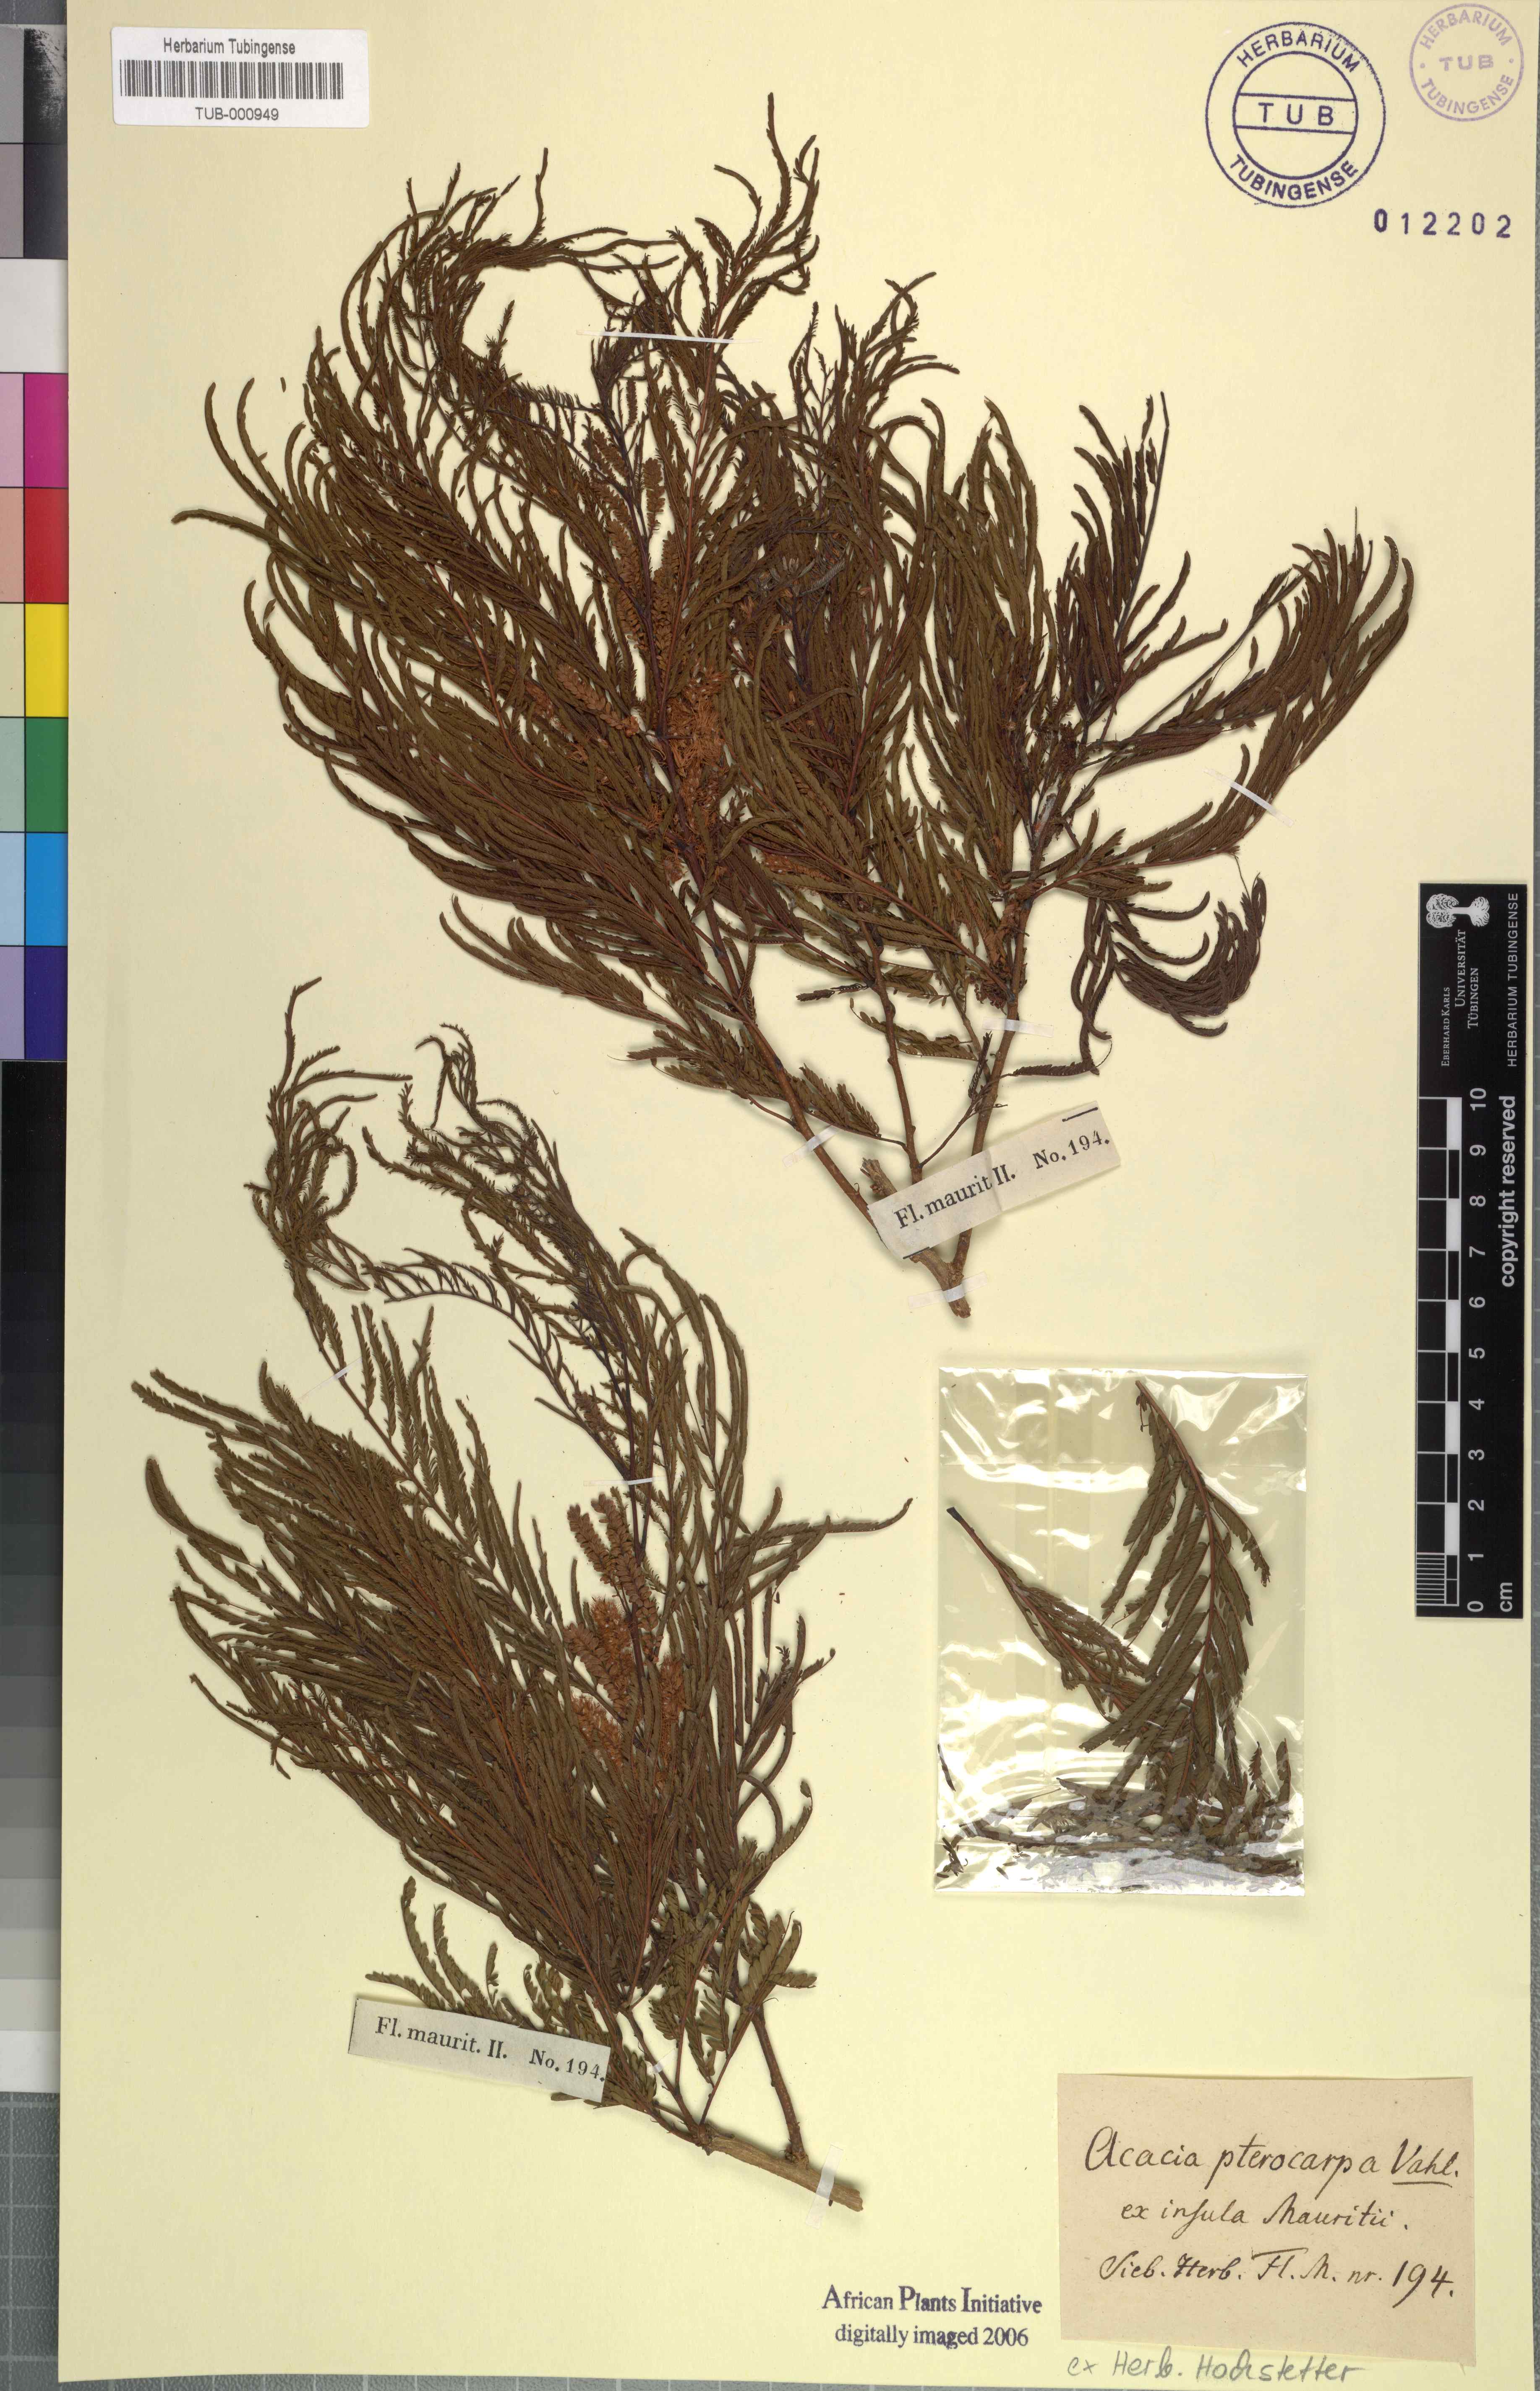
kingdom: Plantae
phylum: Tracheophyta
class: Magnoliopsida
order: Fabales
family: Fabaceae
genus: Acacia
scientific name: Acacia pterocarpa
